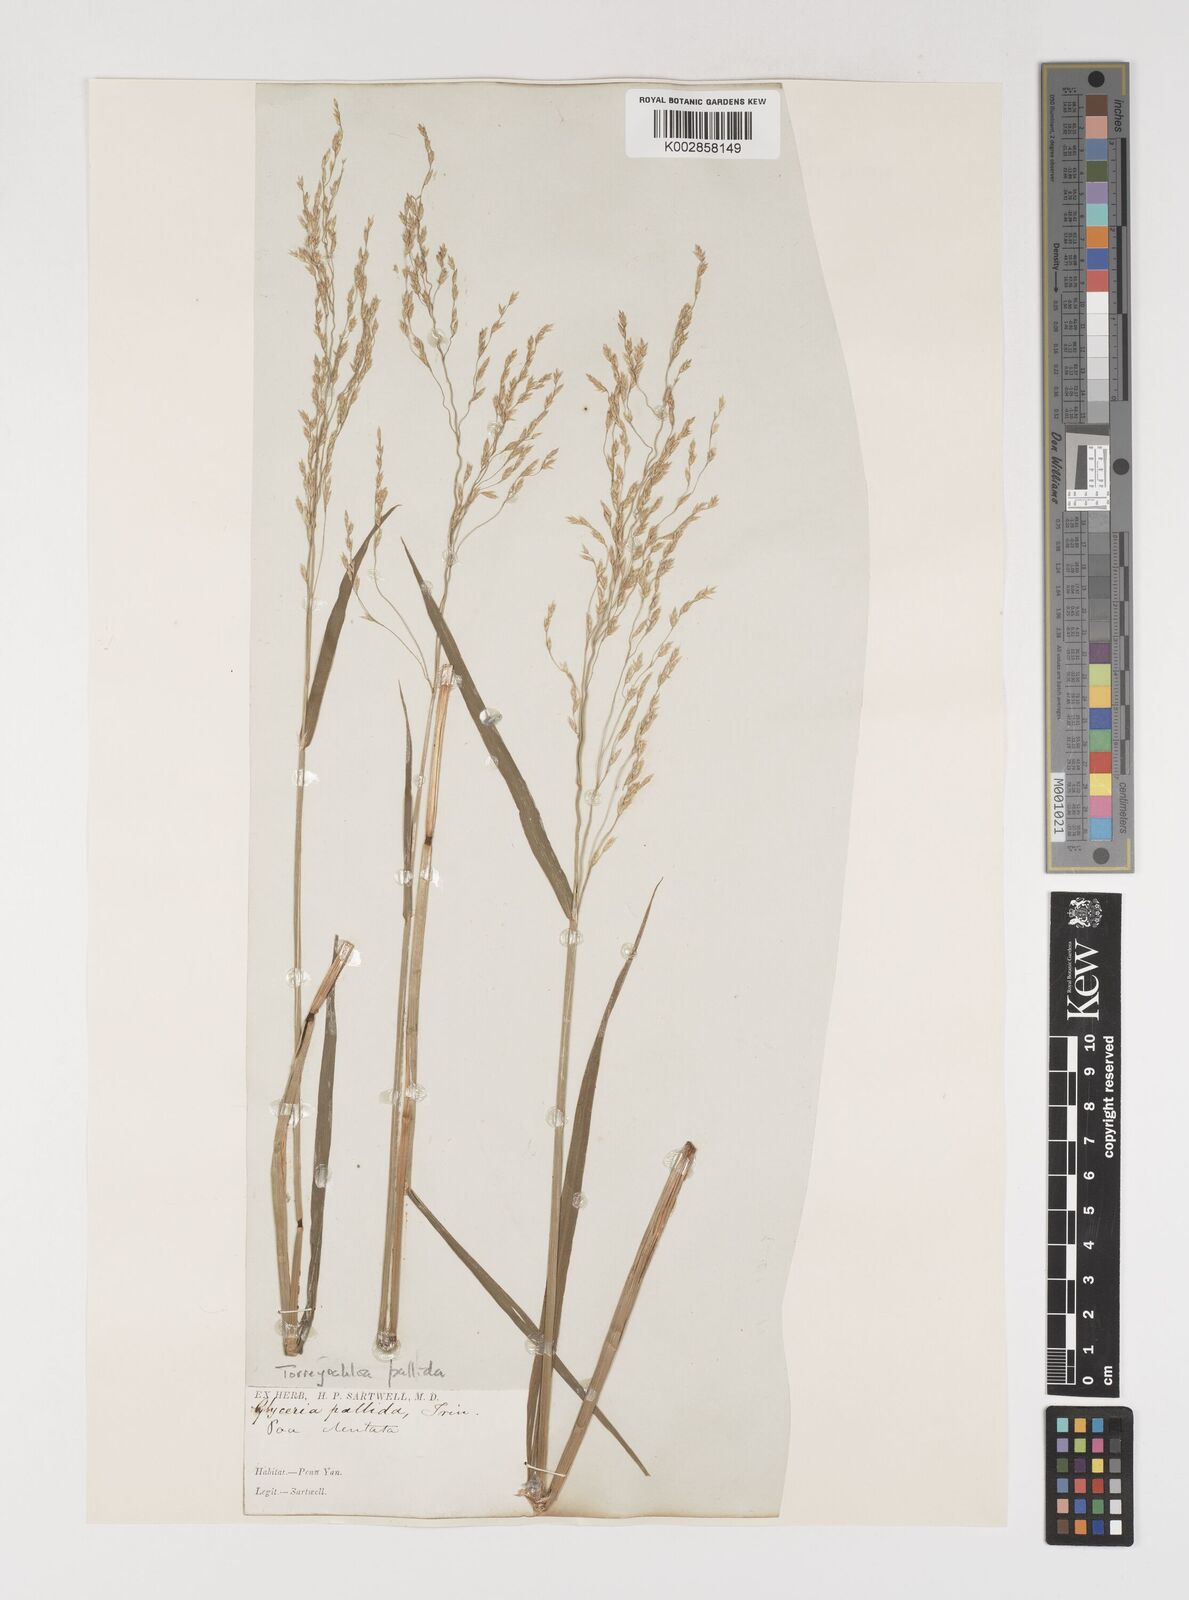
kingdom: Plantae
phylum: Tracheophyta
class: Liliopsida
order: Poales
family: Poaceae
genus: Torreyochloa
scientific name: Torreyochloa pallida
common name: Pale false mannagrass
